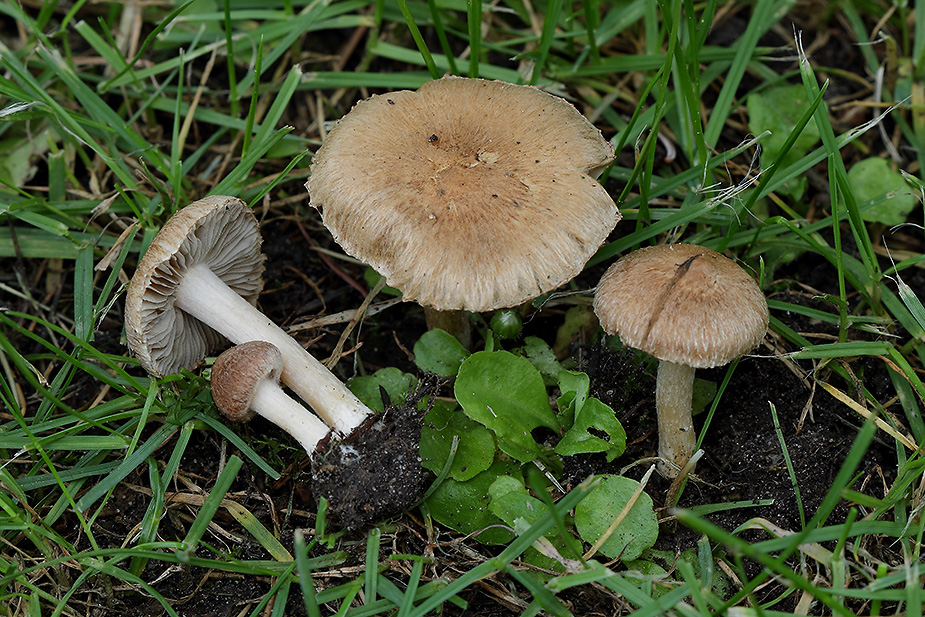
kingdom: Fungi
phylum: Basidiomycota
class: Agaricomycetes
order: Agaricales
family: Inocybaceae
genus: Inocybe
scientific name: Inocybe semifulva
